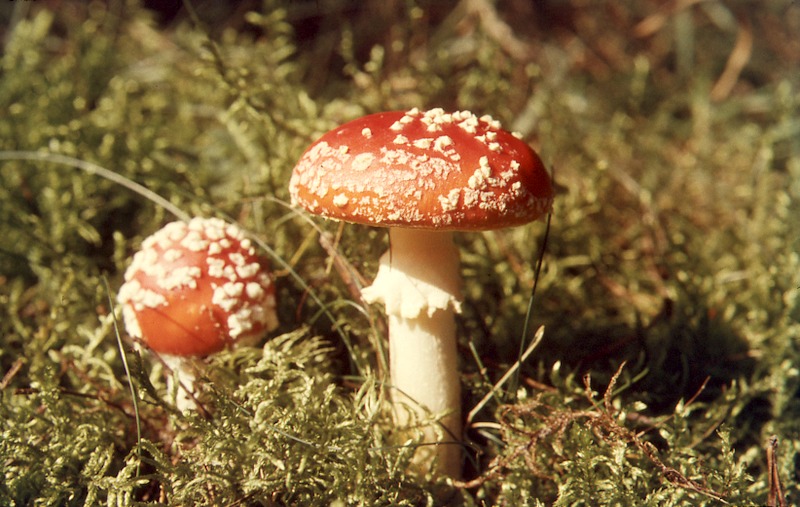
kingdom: Fungi
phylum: Basidiomycota
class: Agaricomycetes
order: Agaricales
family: Amanitaceae
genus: Amanita
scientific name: Amanita muscaria
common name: Fly agaric
